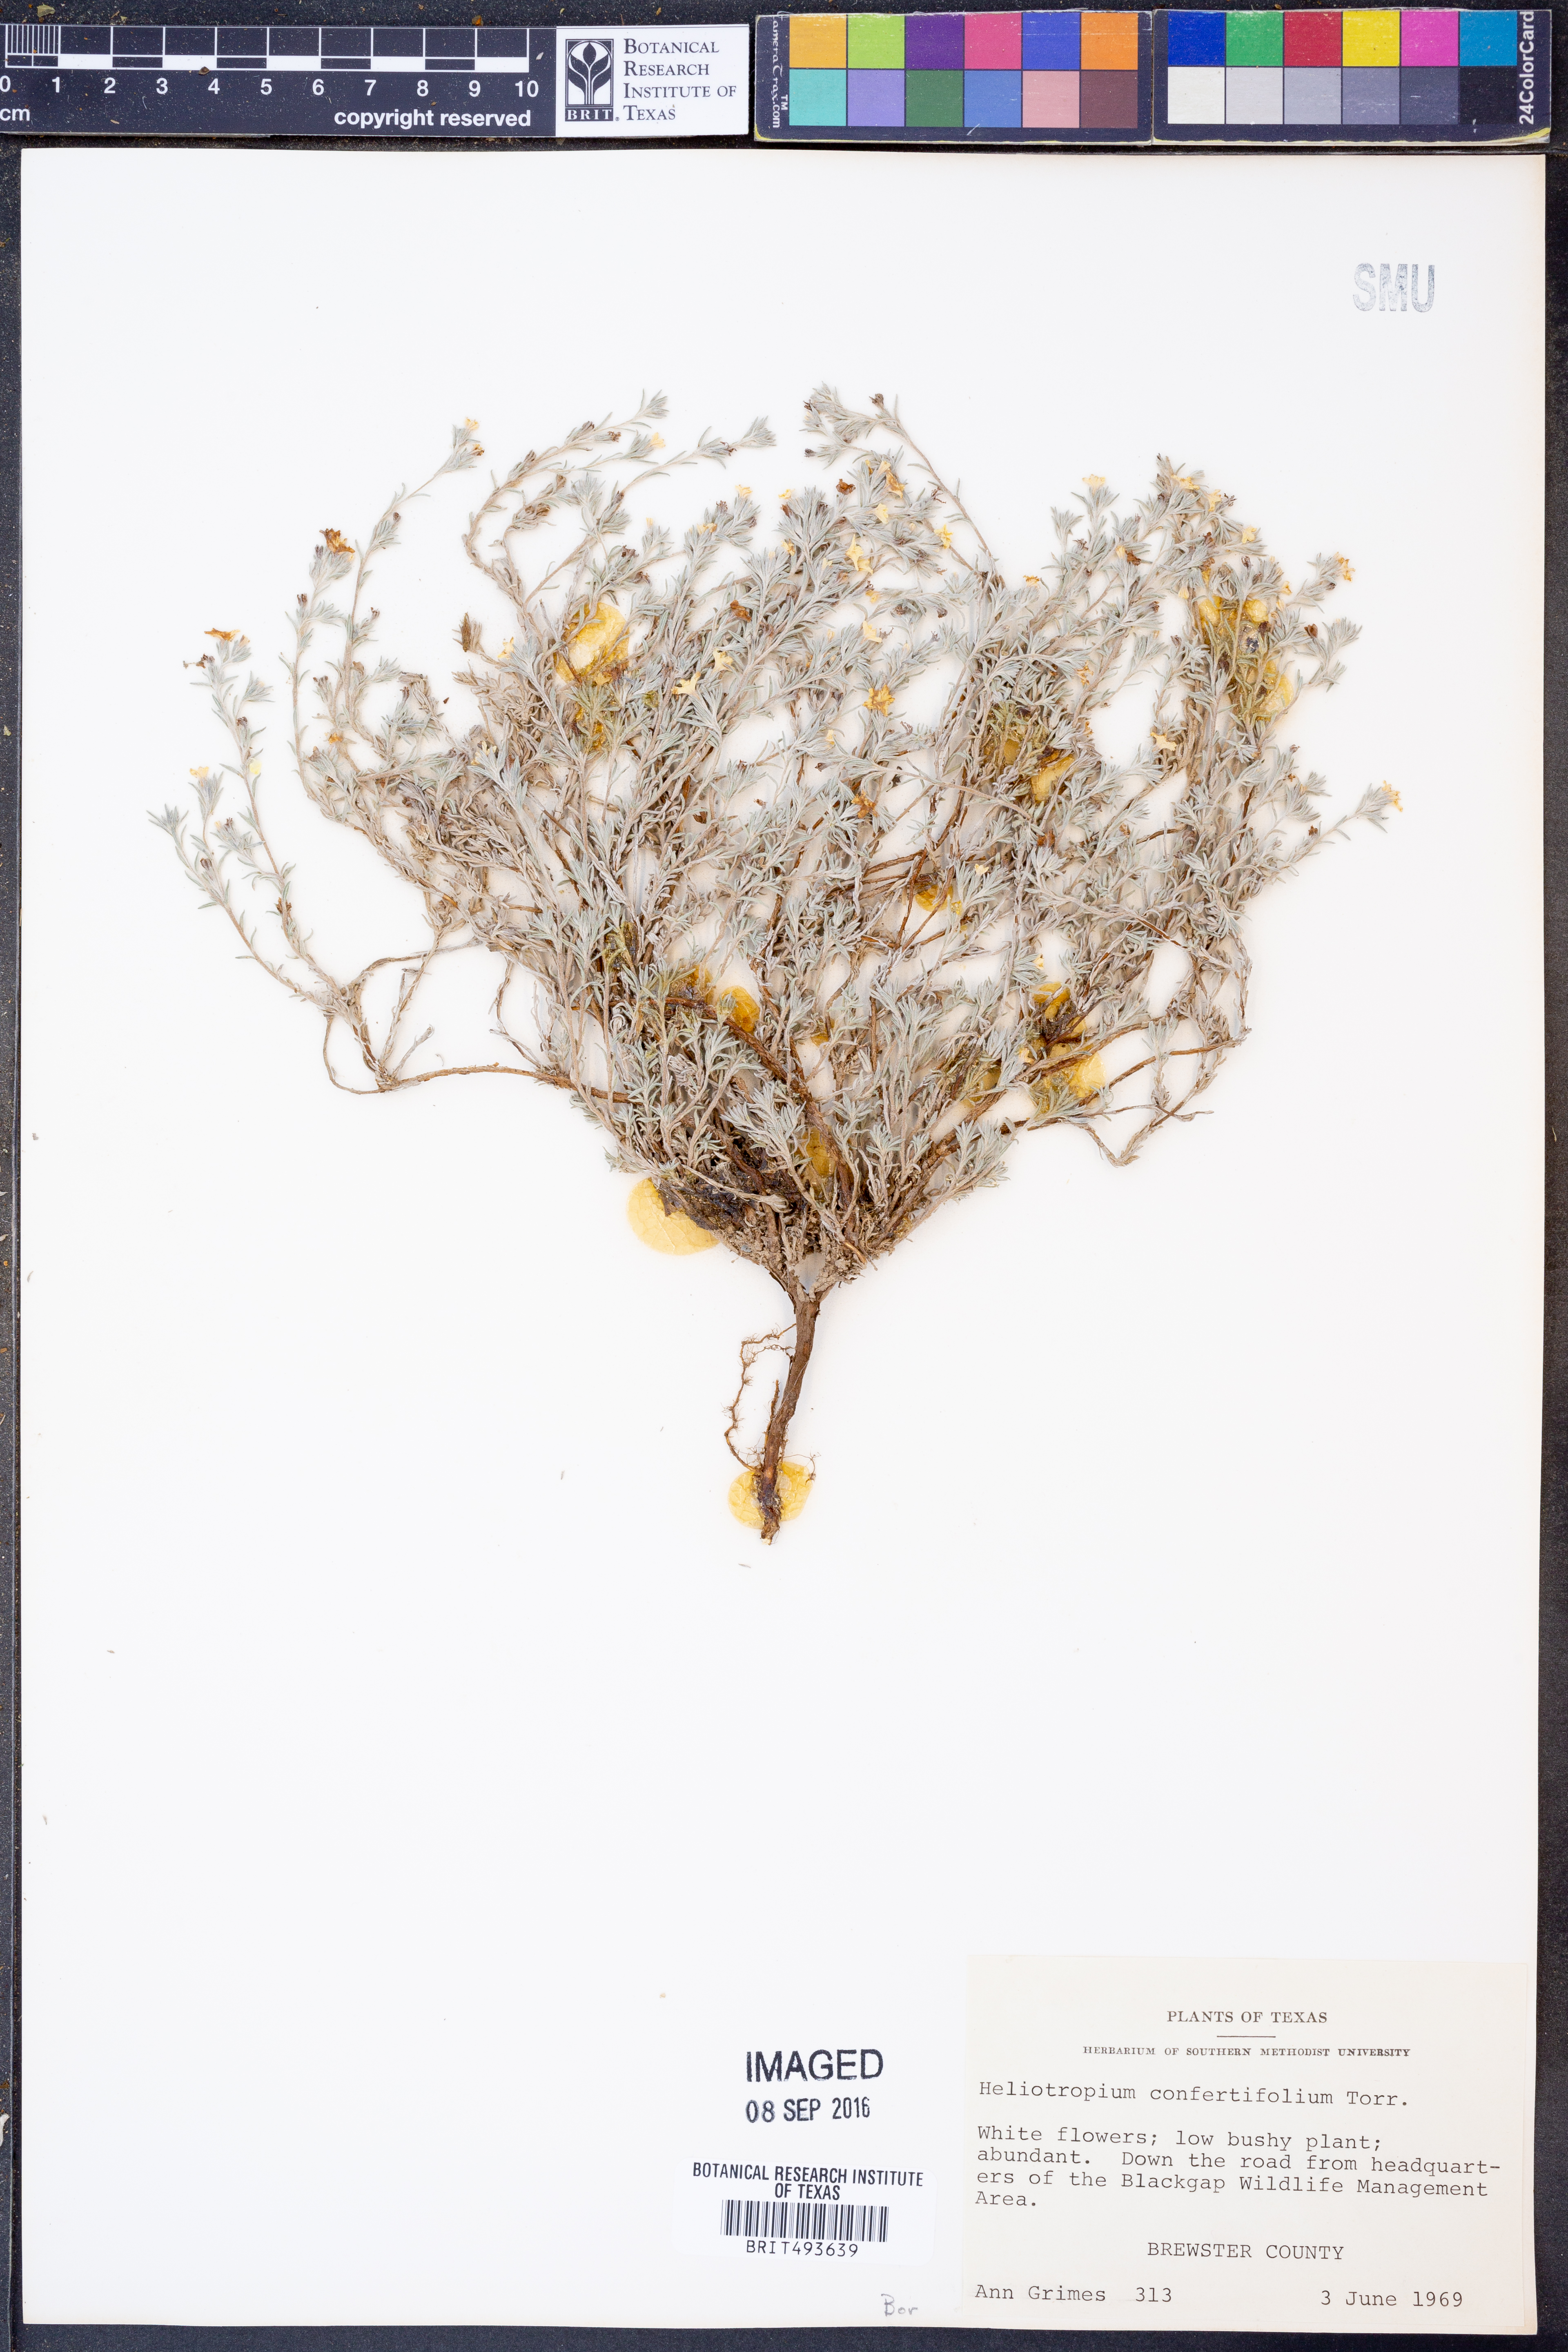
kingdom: Plantae
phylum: Tracheophyta
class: Magnoliopsida
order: Boraginales
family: Heliotropiaceae
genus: Euploca
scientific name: Euploca confertifolia
